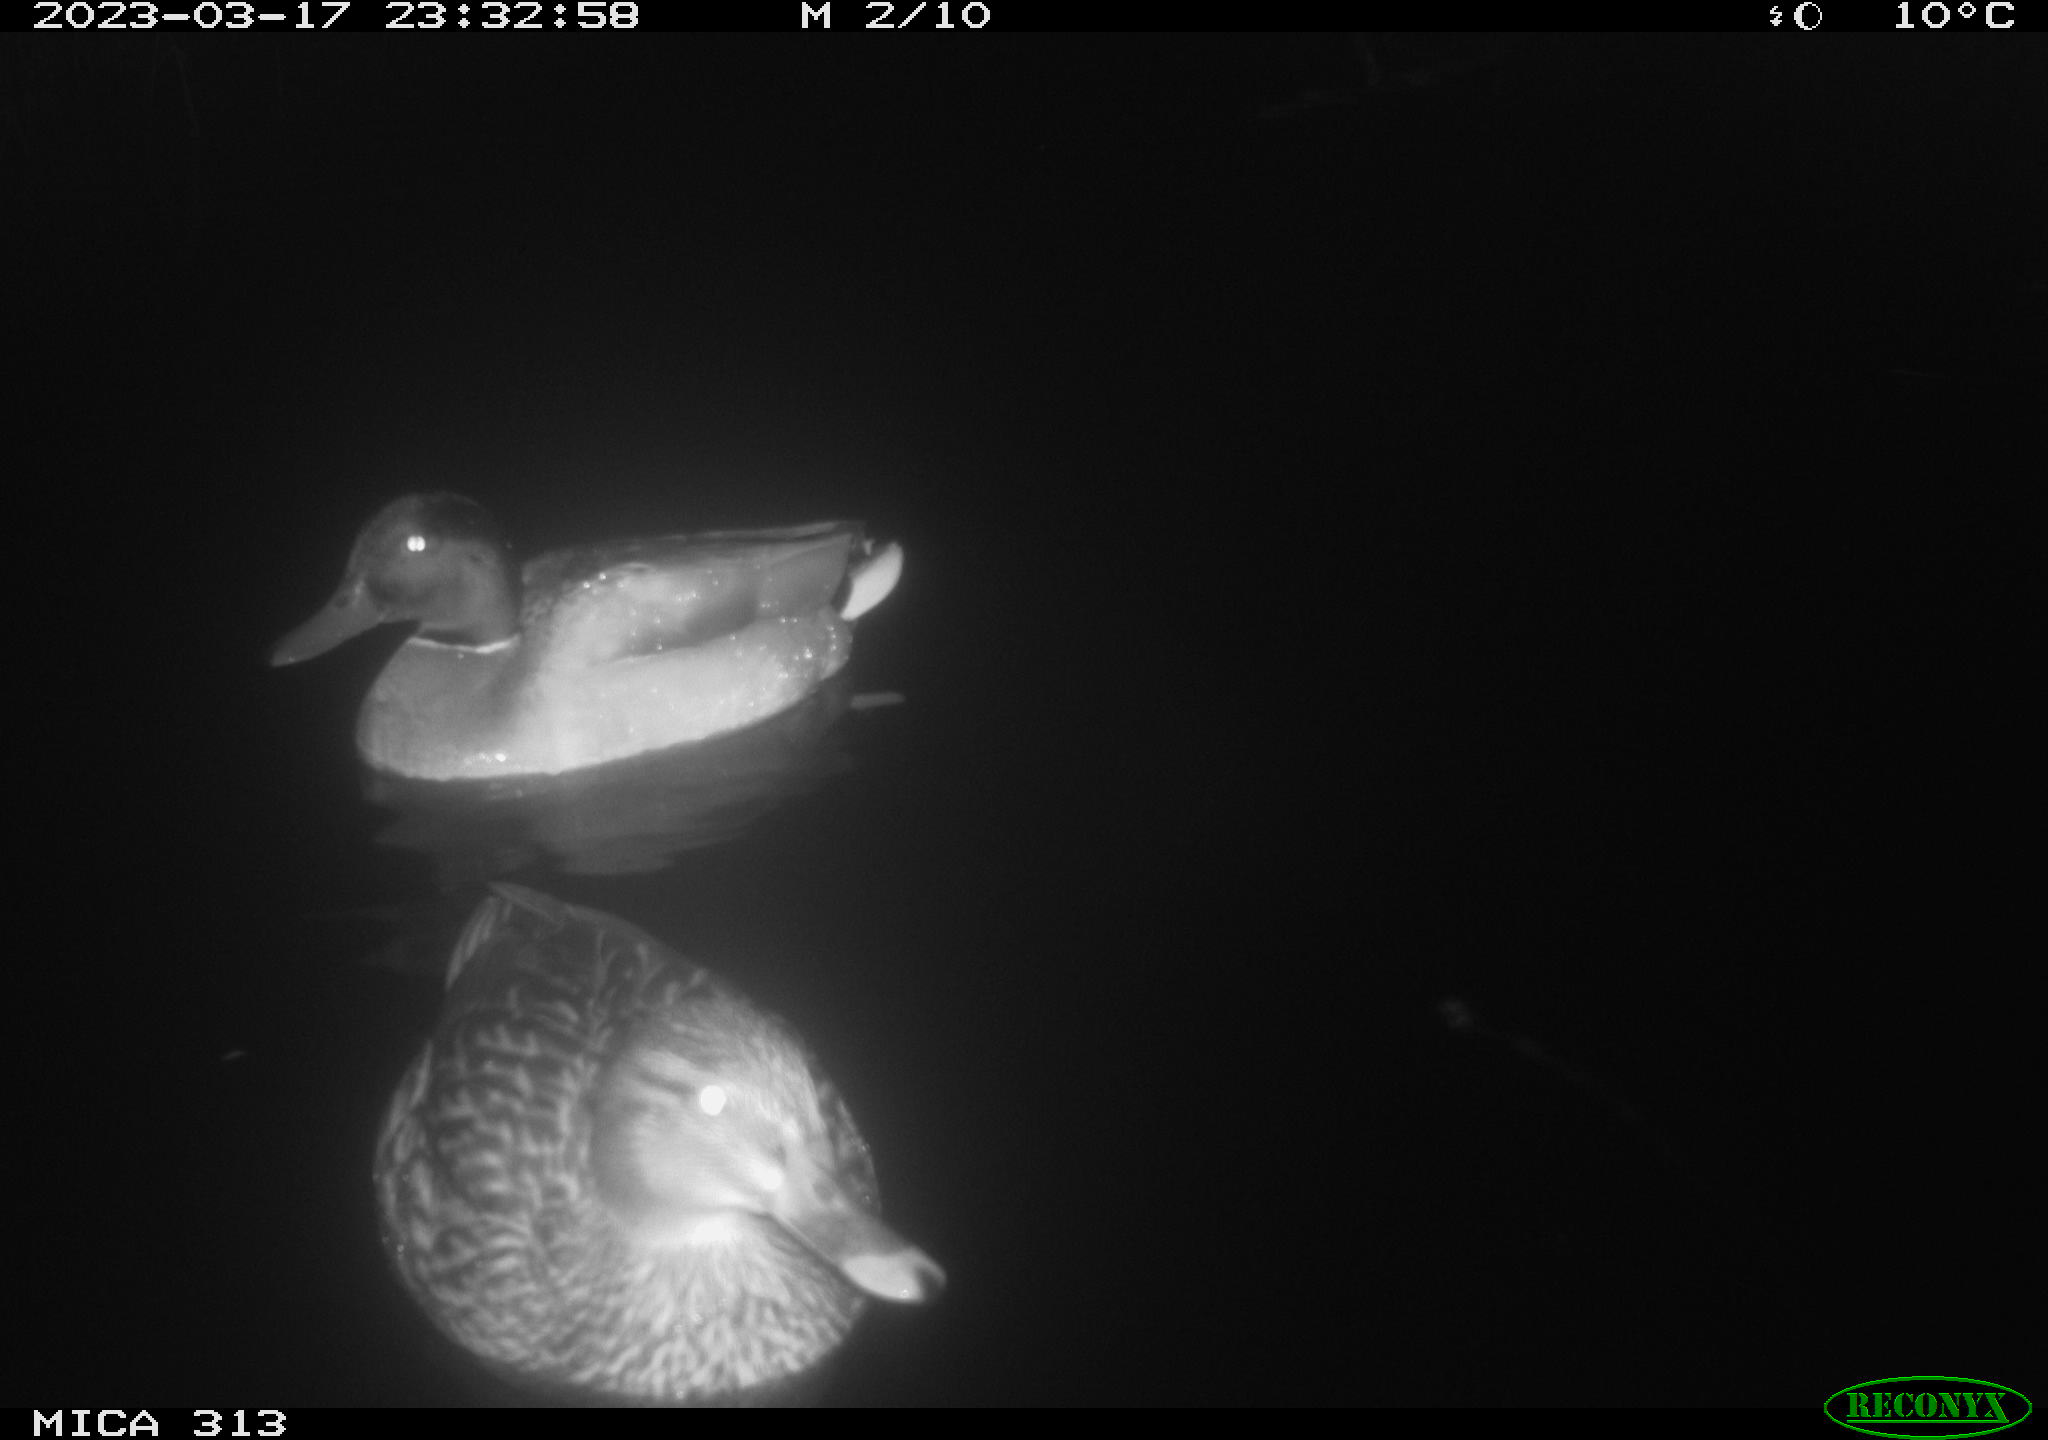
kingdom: Animalia
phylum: Chordata
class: Aves
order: Anseriformes
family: Anatidae
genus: Anas
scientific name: Anas
